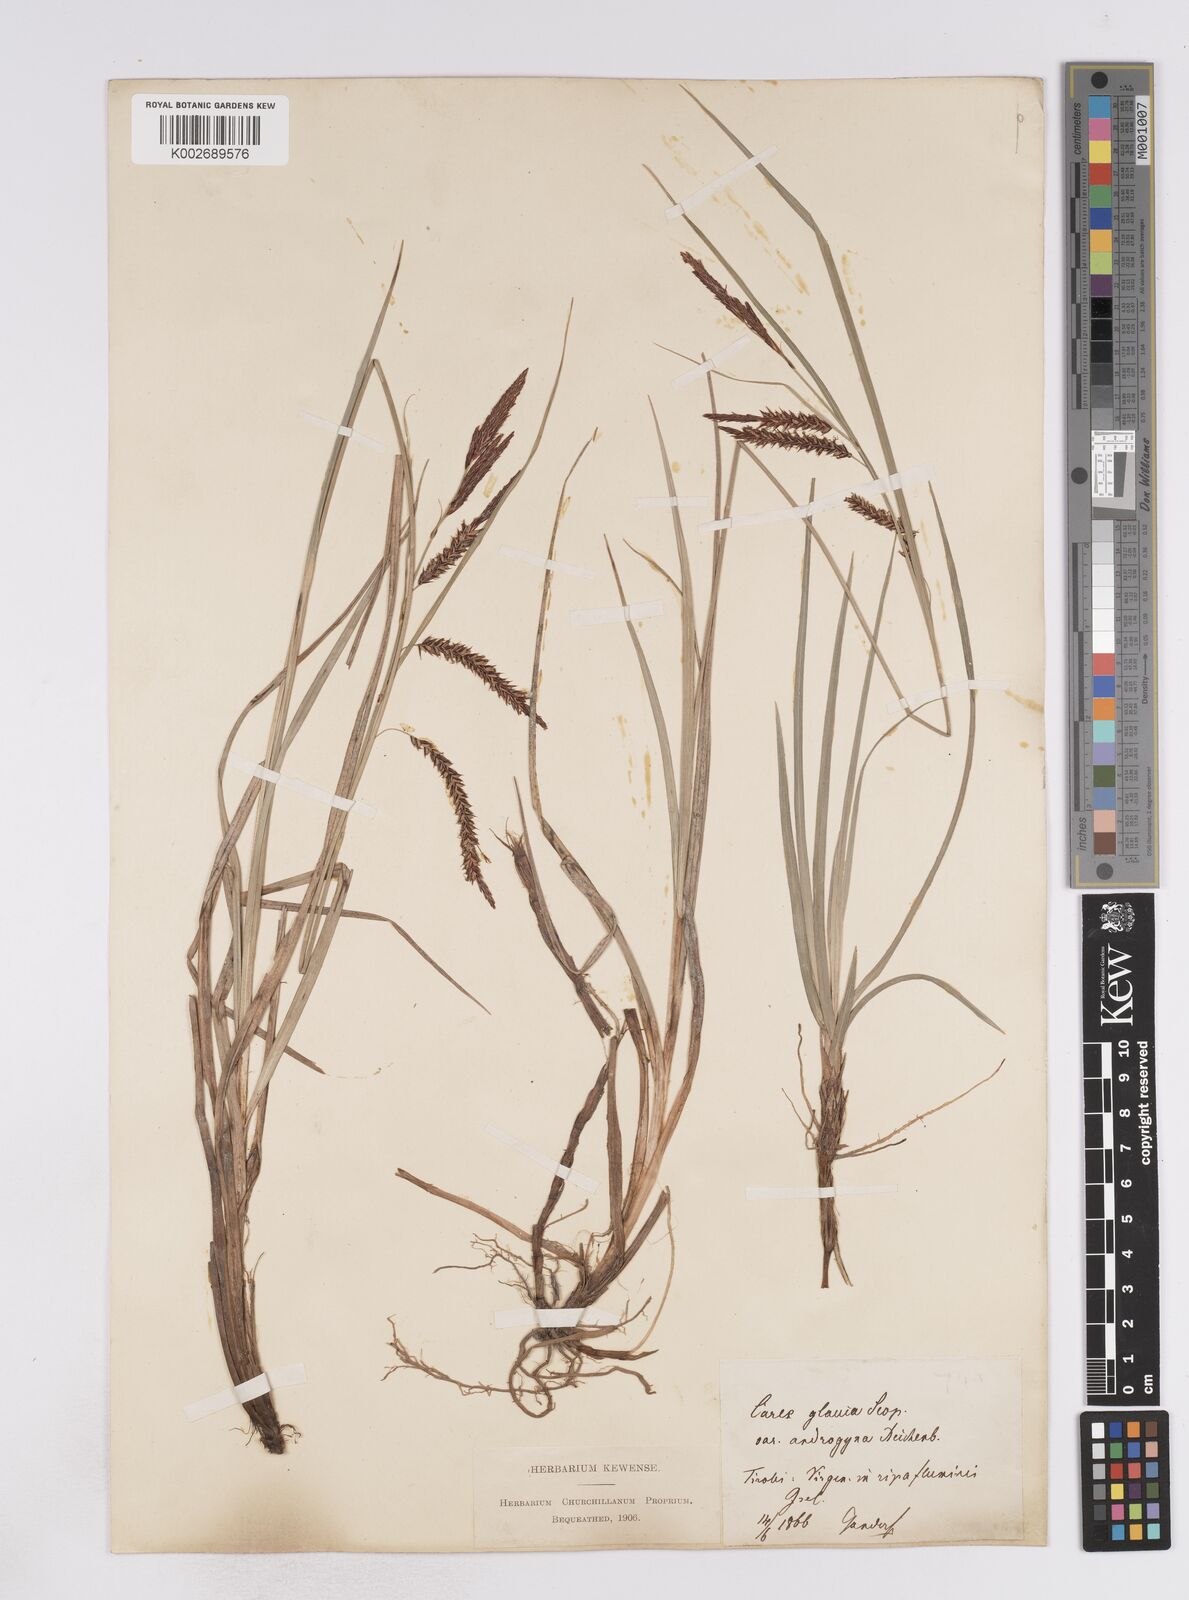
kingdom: Plantae
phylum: Tracheophyta
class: Liliopsida
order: Poales
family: Cyperaceae
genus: Carex
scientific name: Carex flacca
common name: Glaucous sedge
